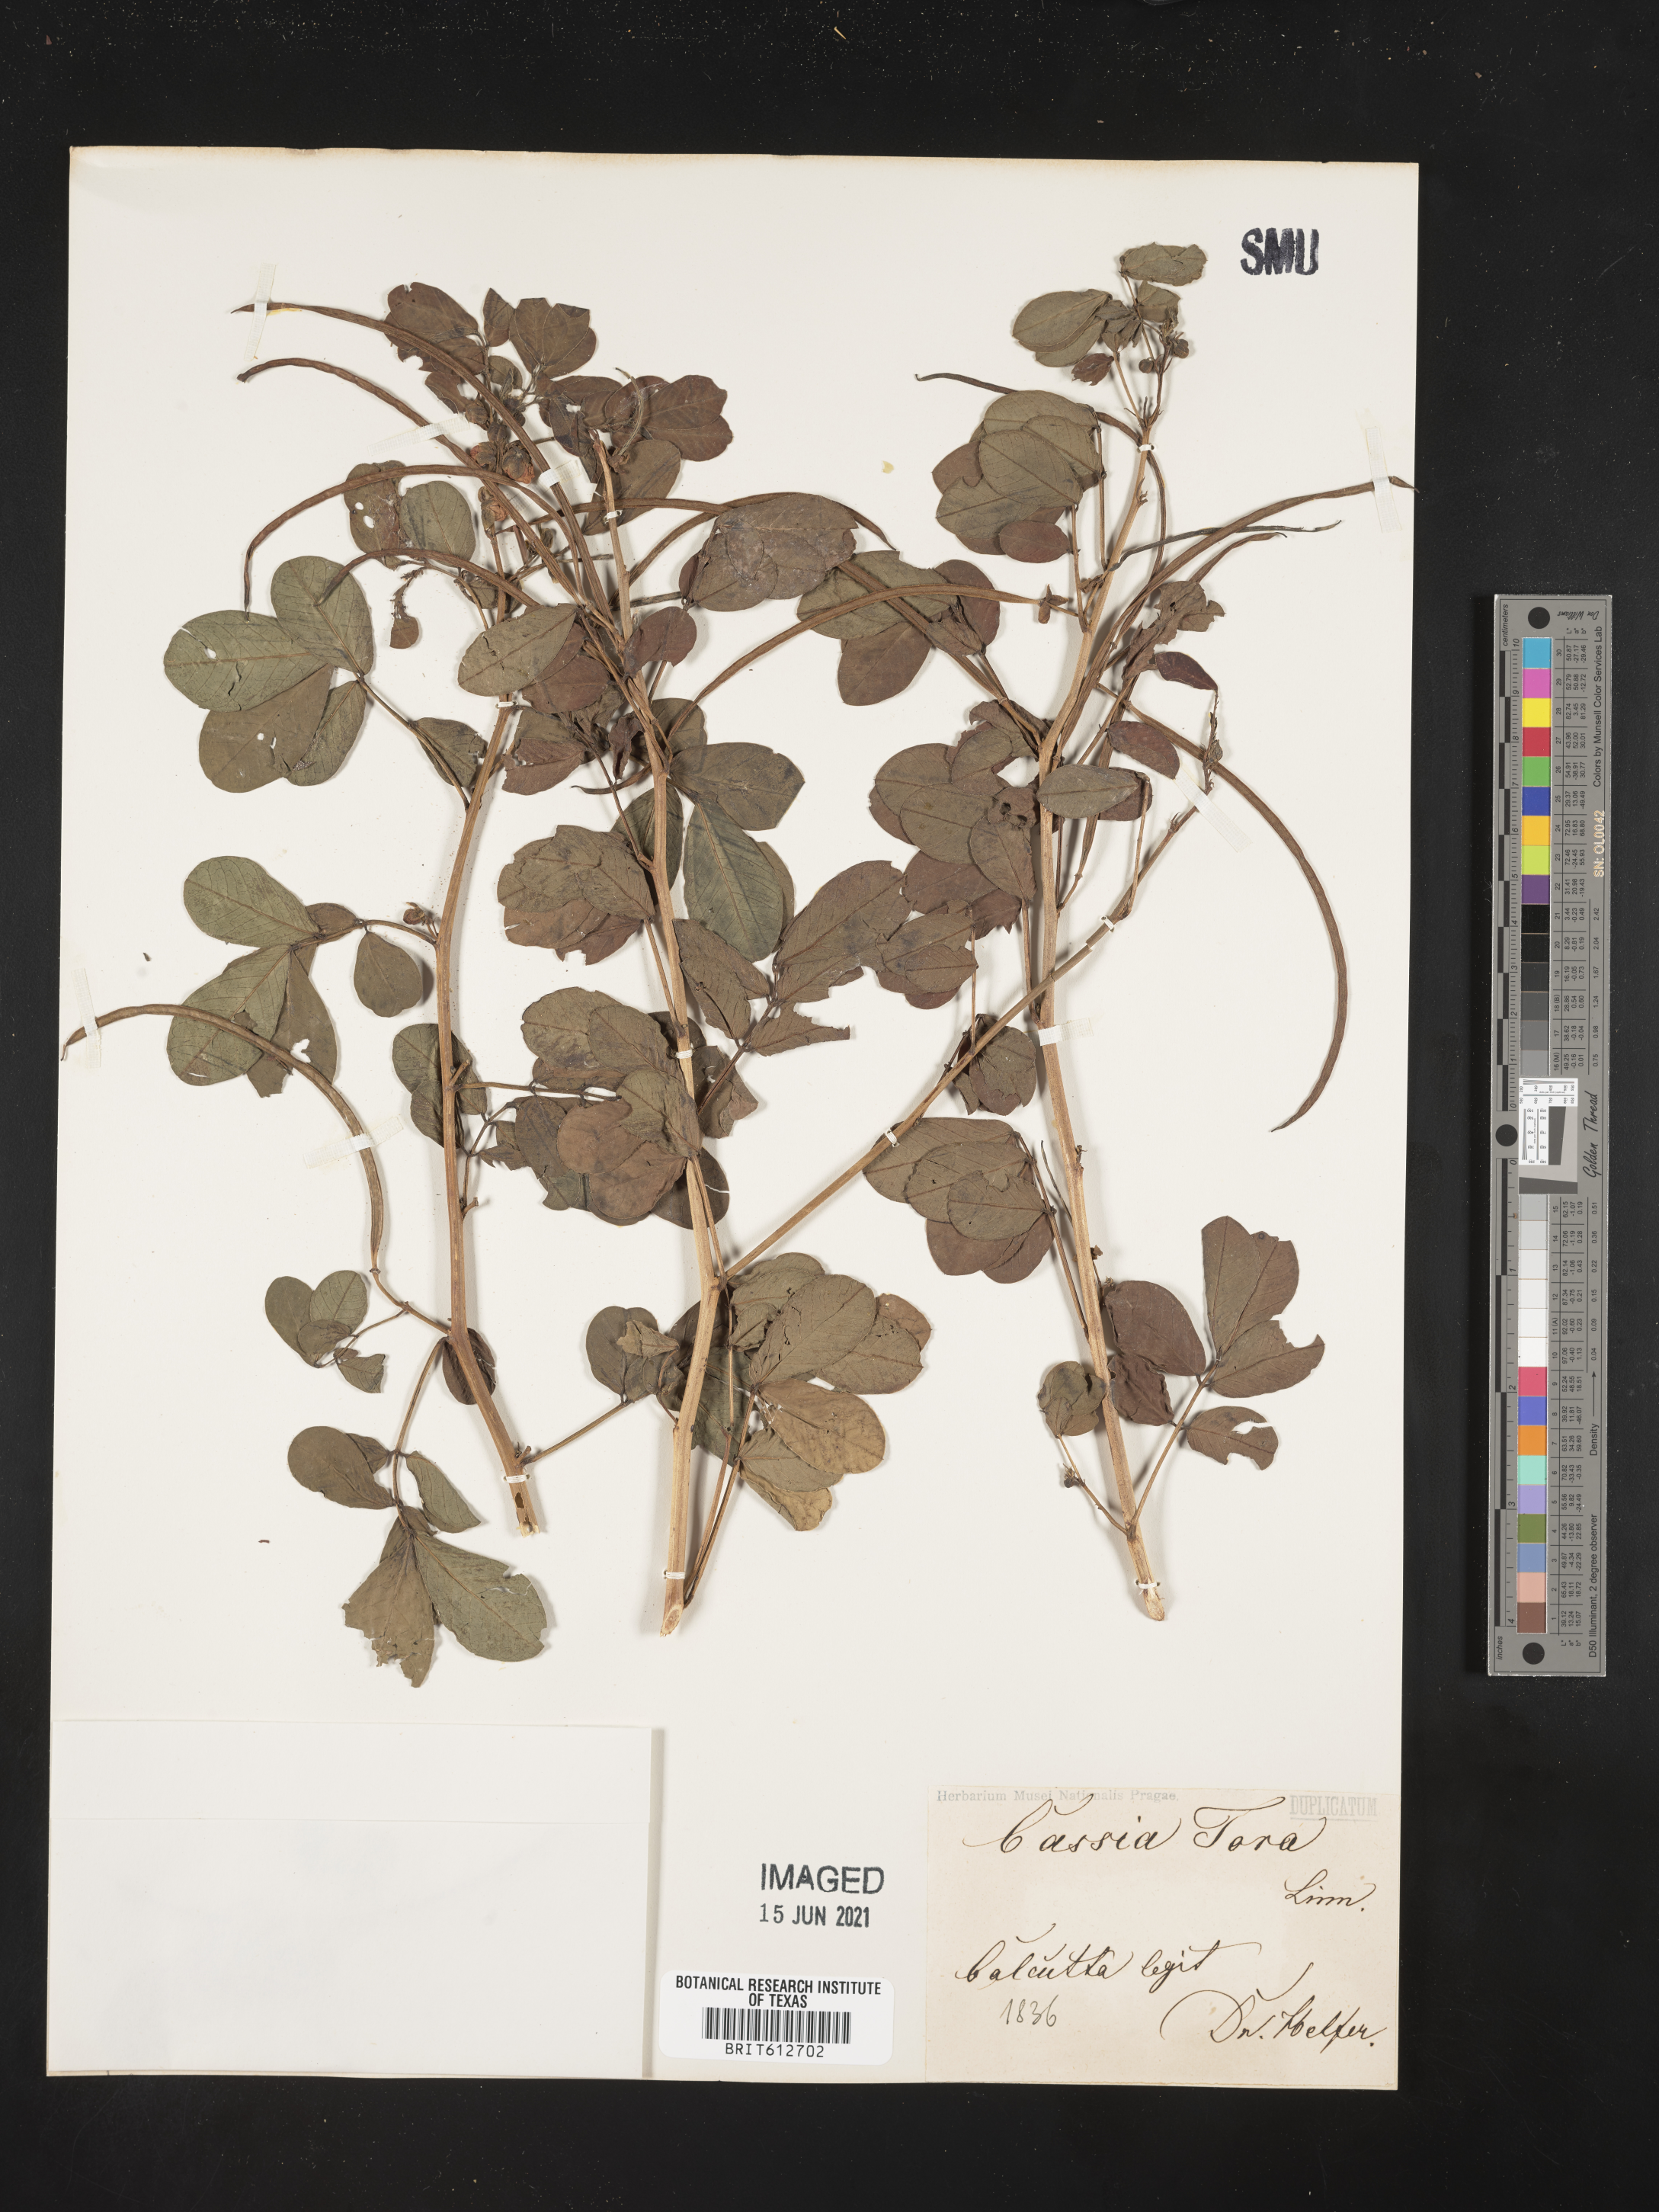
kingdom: Plantae
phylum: Tracheophyta
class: Magnoliopsida
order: Fabales
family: Fabaceae
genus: Senna
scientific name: Senna tora
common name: Sickle senna
